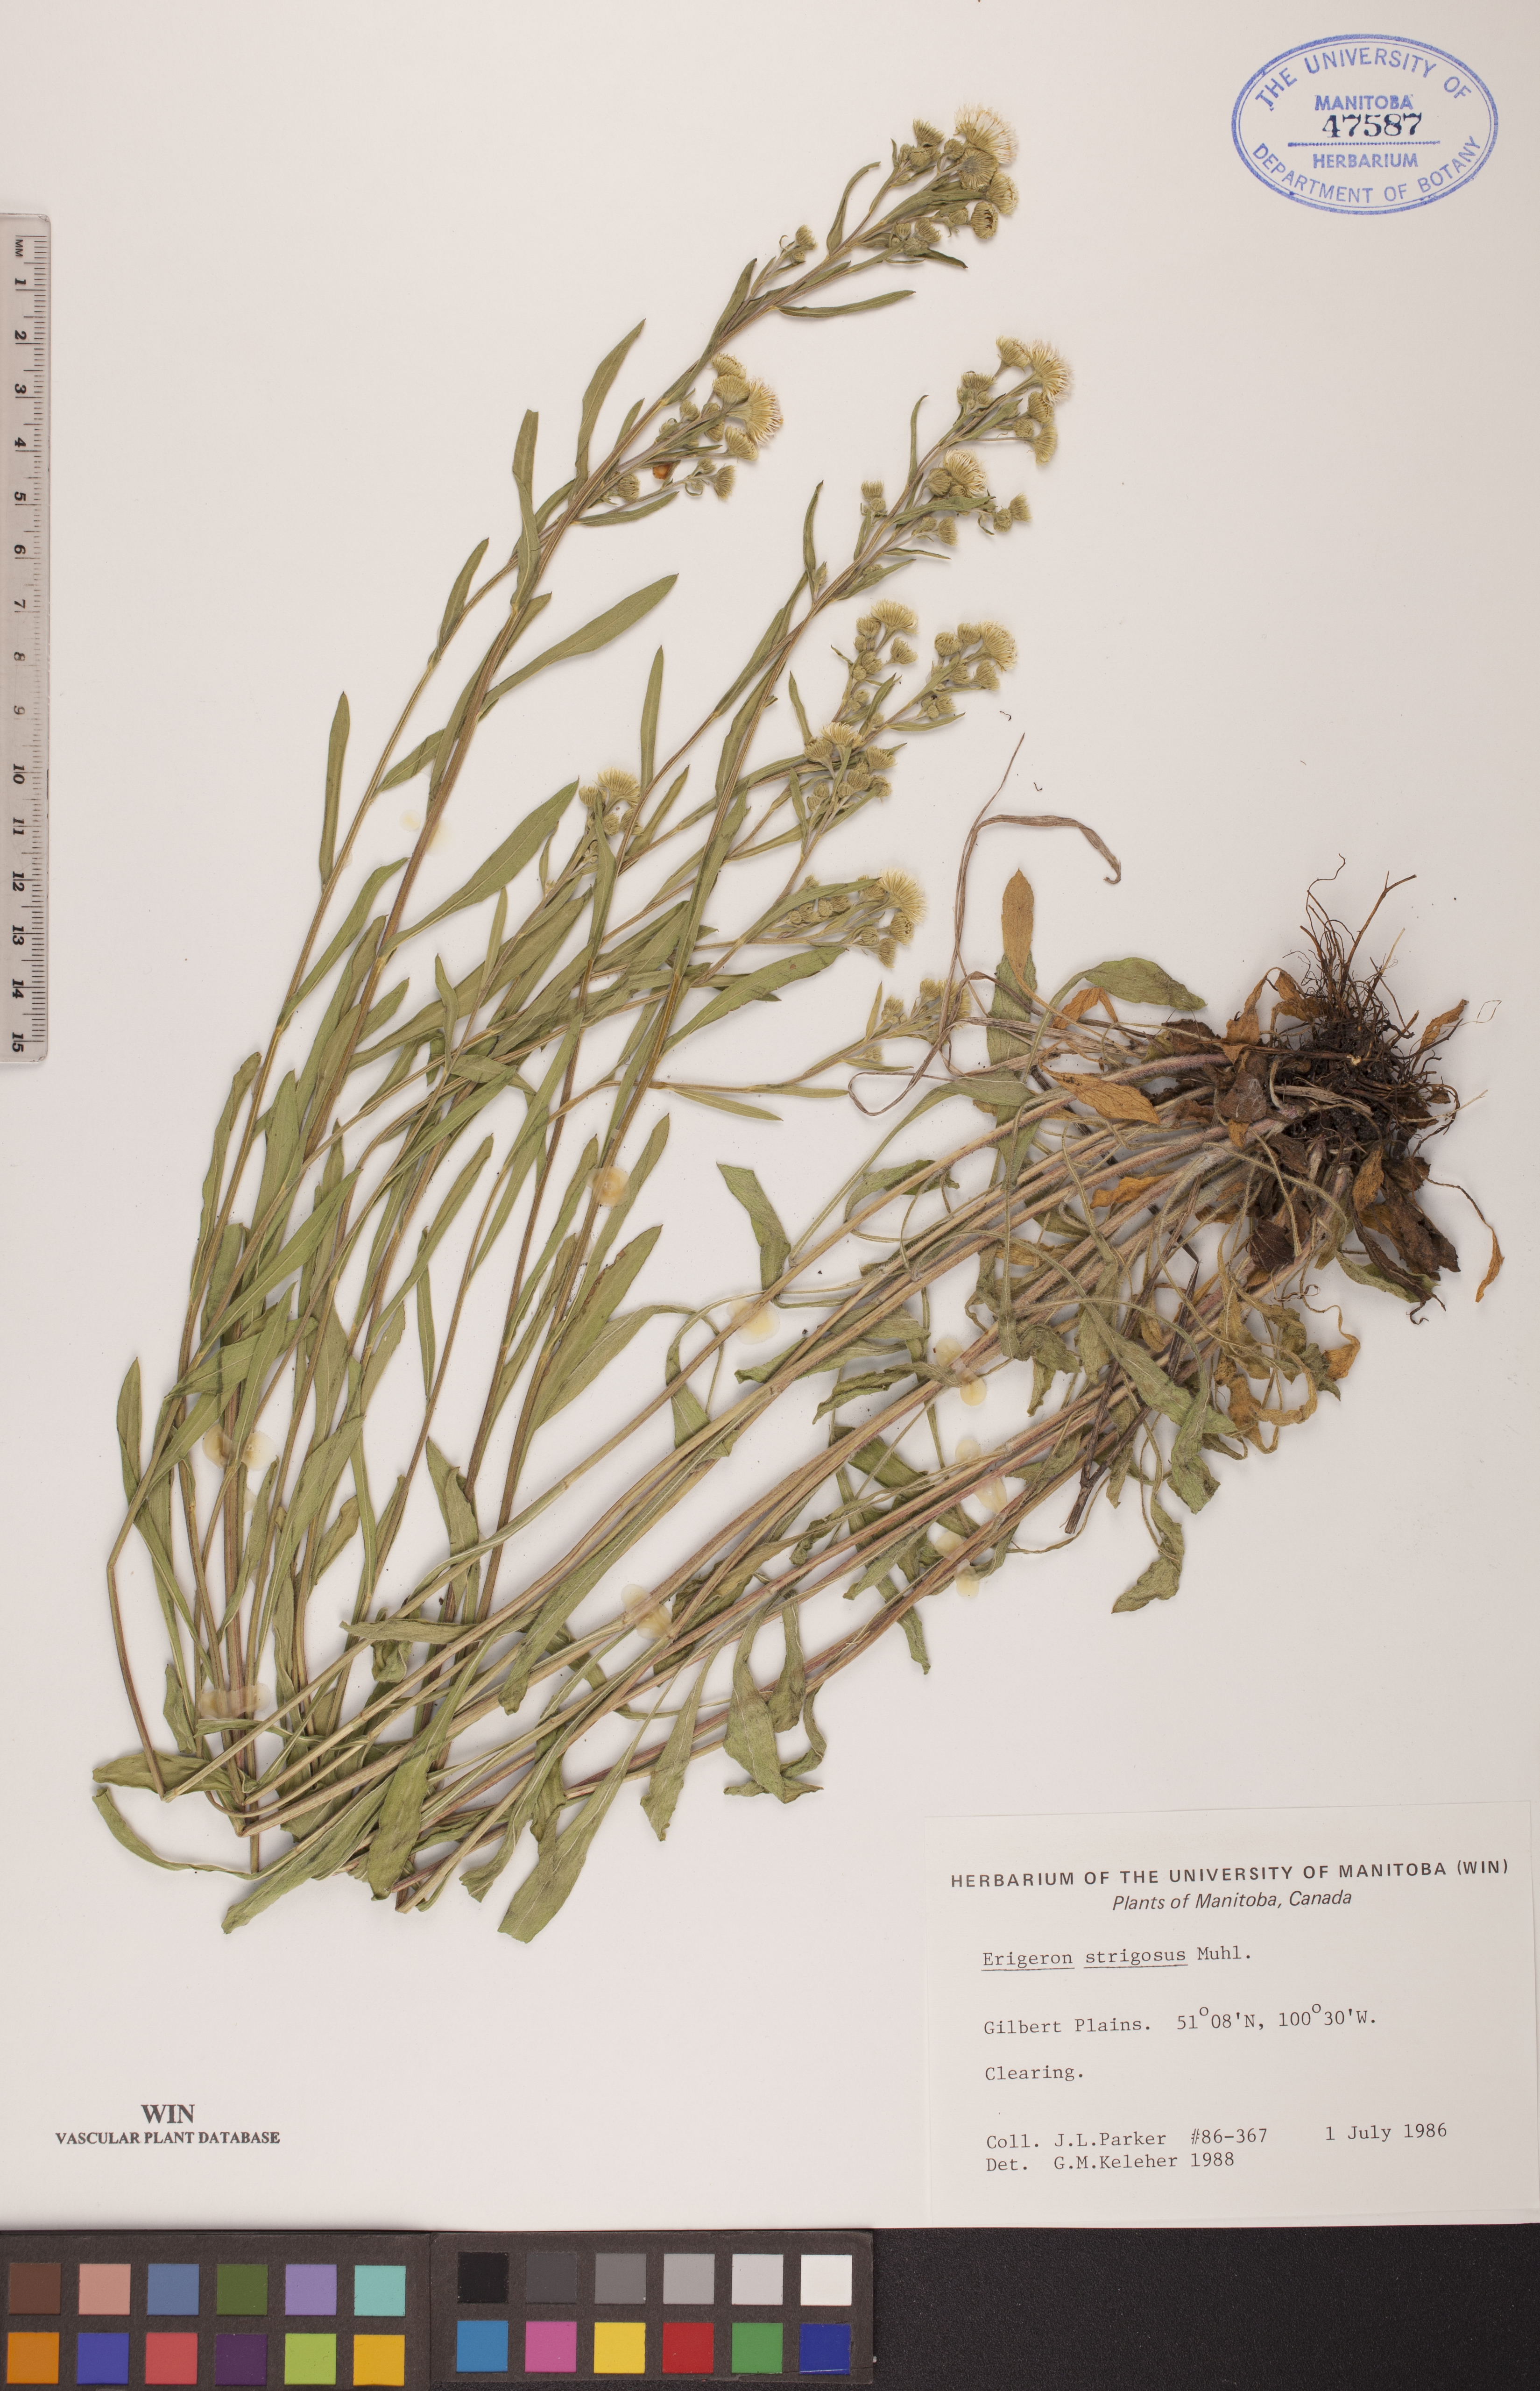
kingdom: Plantae
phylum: Tracheophyta
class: Magnoliopsida
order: Asterales
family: Asteraceae
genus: Erigeron
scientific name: Erigeron strigosus
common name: Common eastern fleabane
